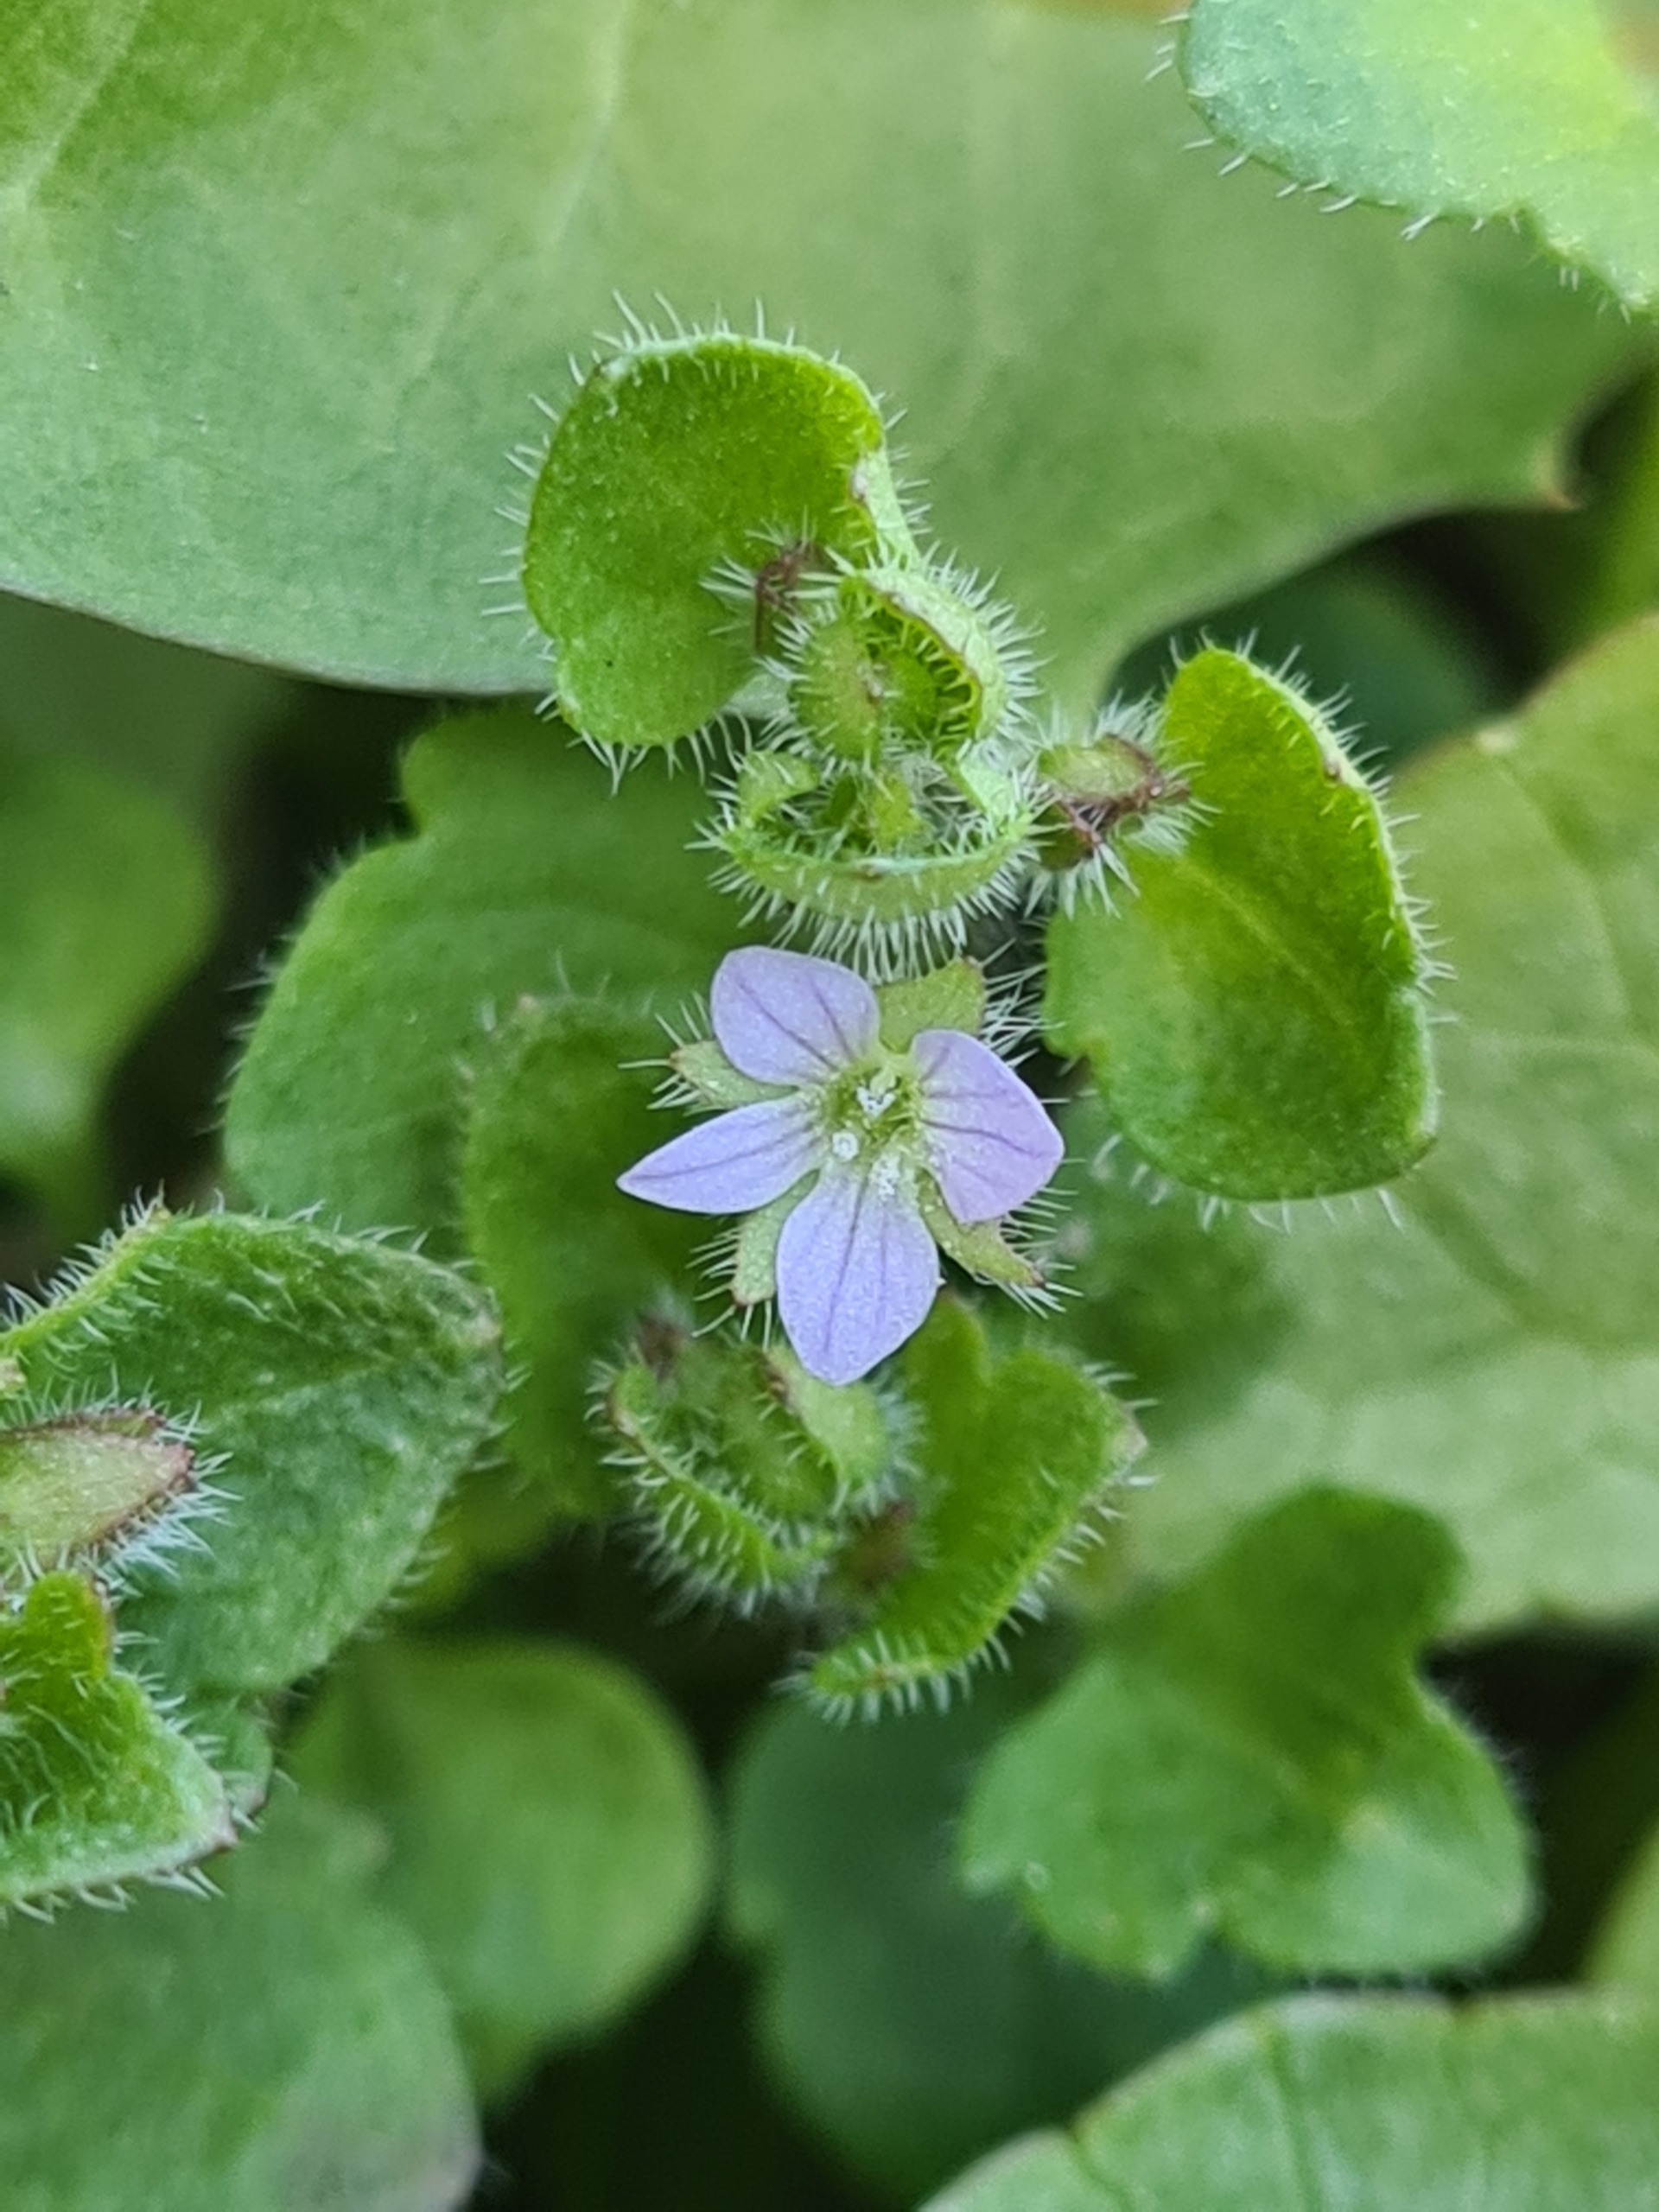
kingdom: Plantae
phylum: Tracheophyta
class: Magnoliopsida
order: Lamiales
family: Plantaginaceae
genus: Veronica
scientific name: Veronica sublobata
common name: Krat-ærenpris
